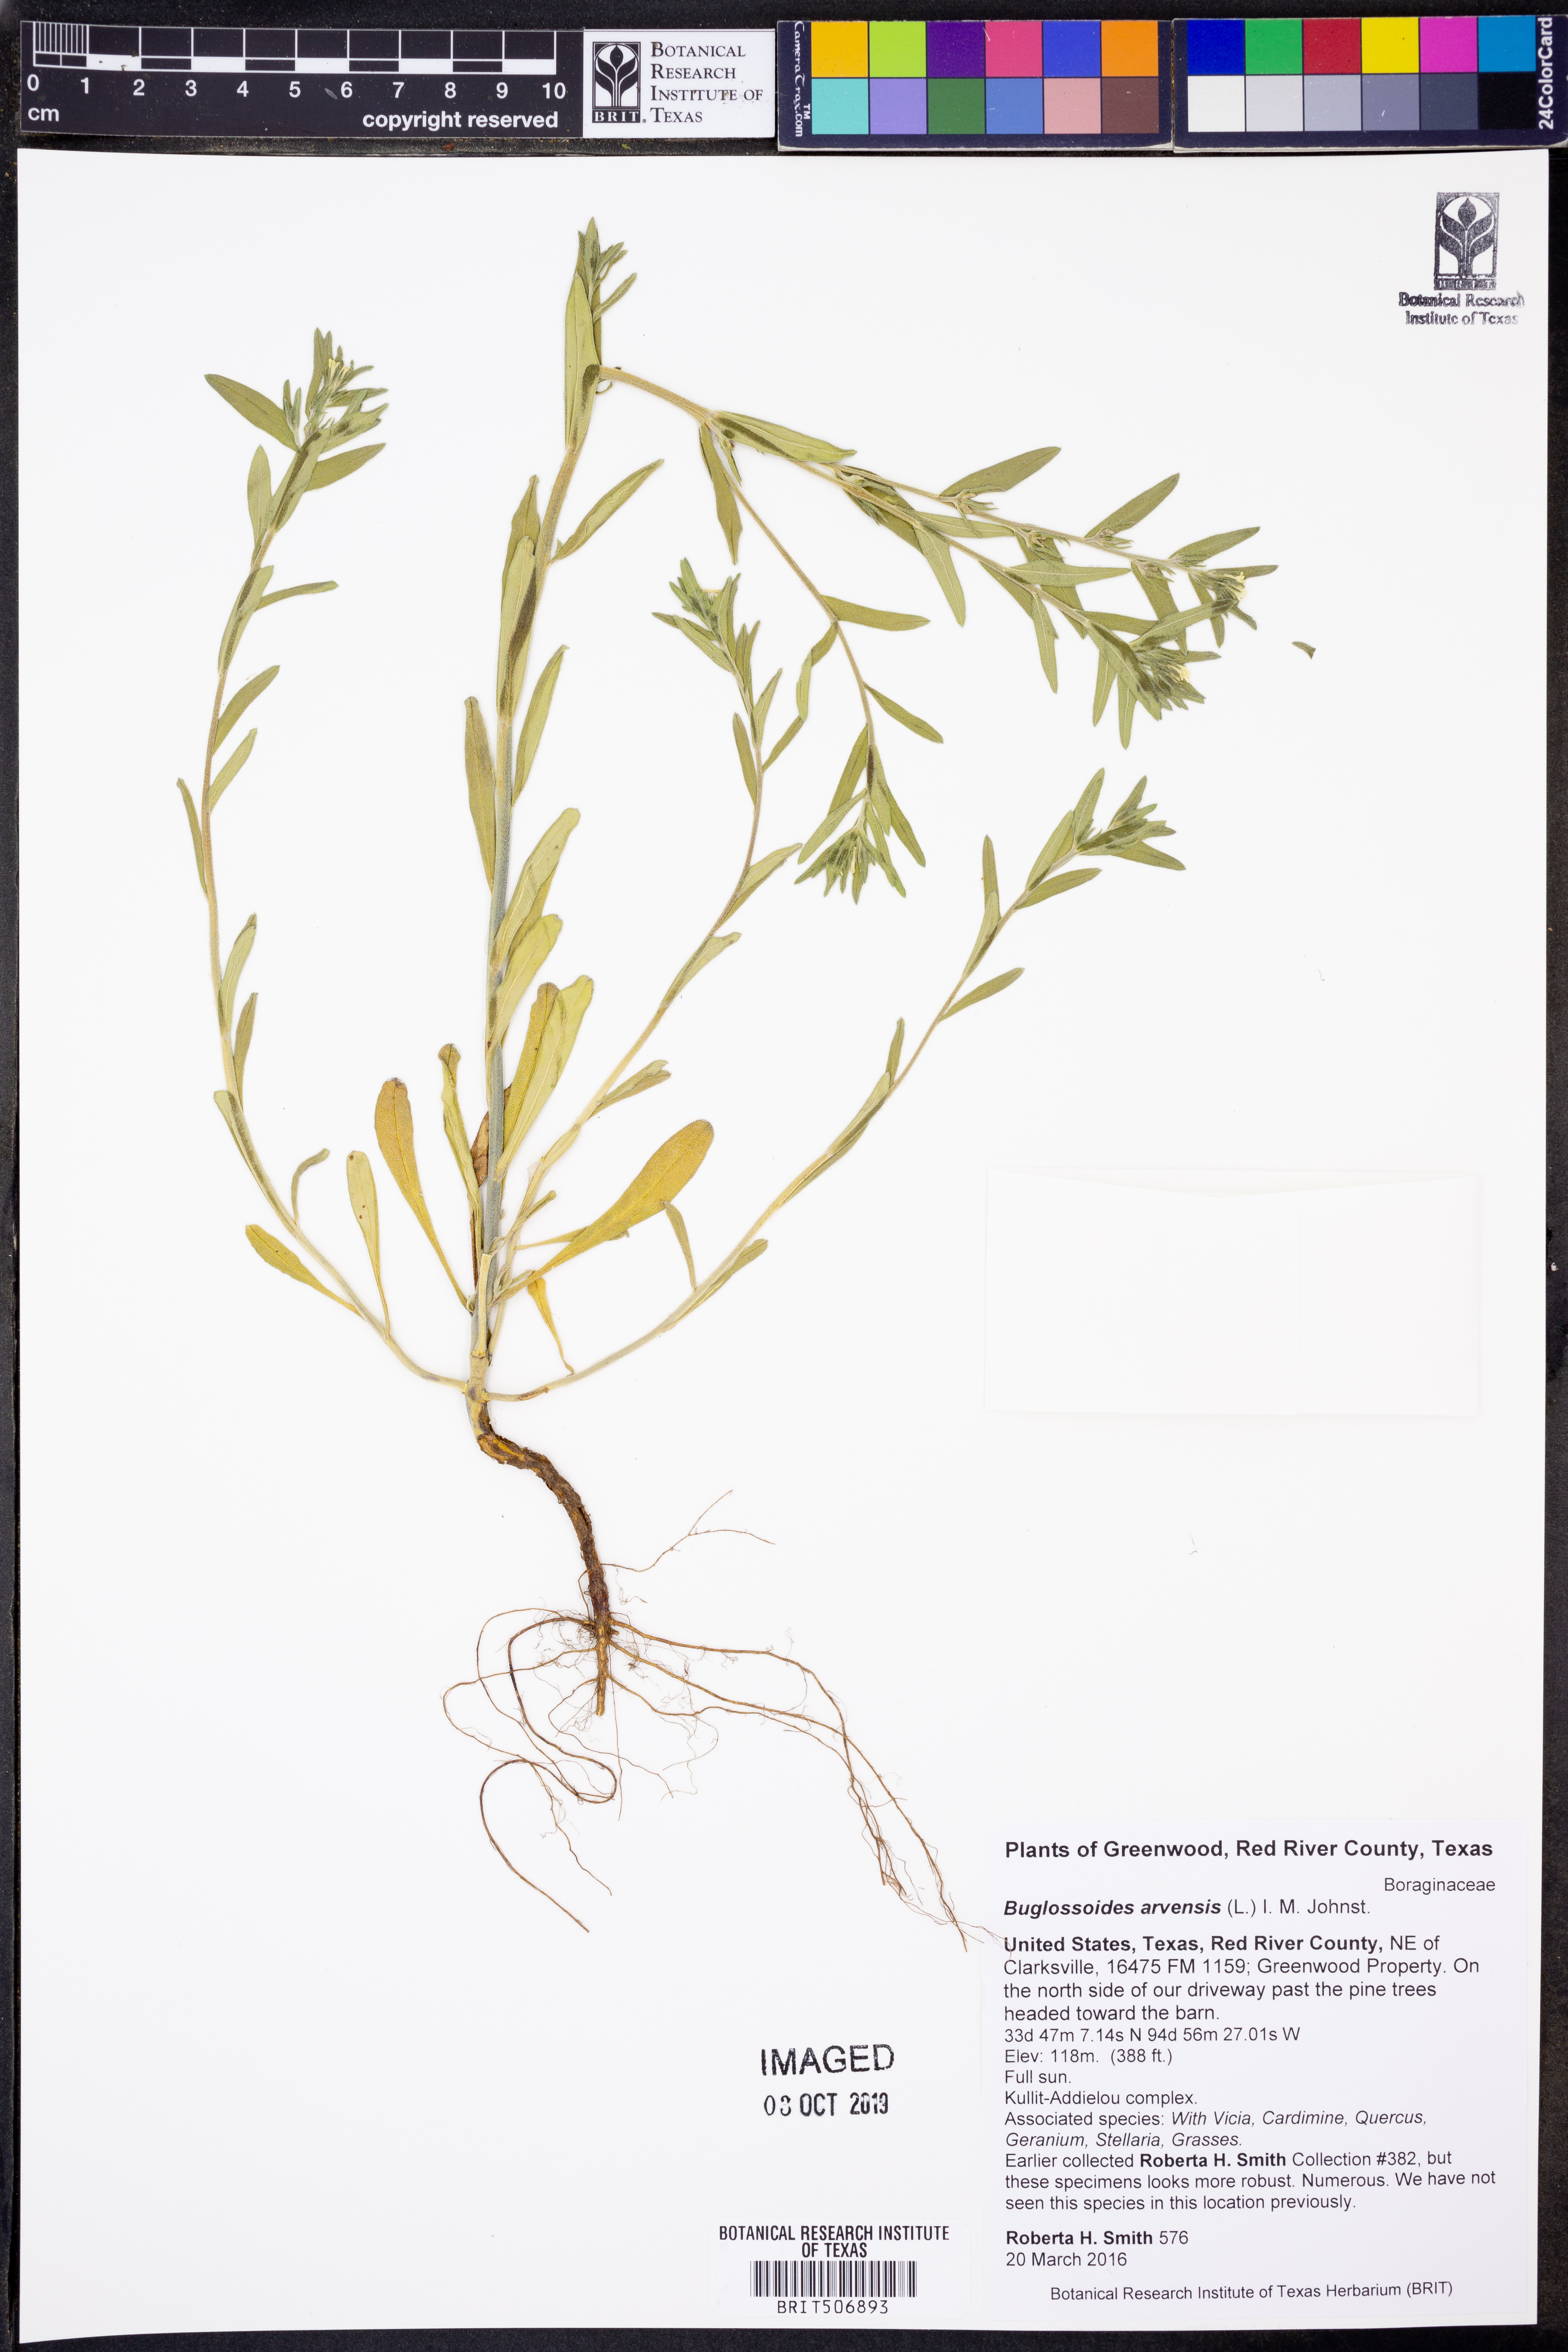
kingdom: Plantae
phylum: Tracheophyta
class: Magnoliopsida
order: Boraginales
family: Boraginaceae
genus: Buglossoides
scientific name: Buglossoides arvensis
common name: Corn gromwell
